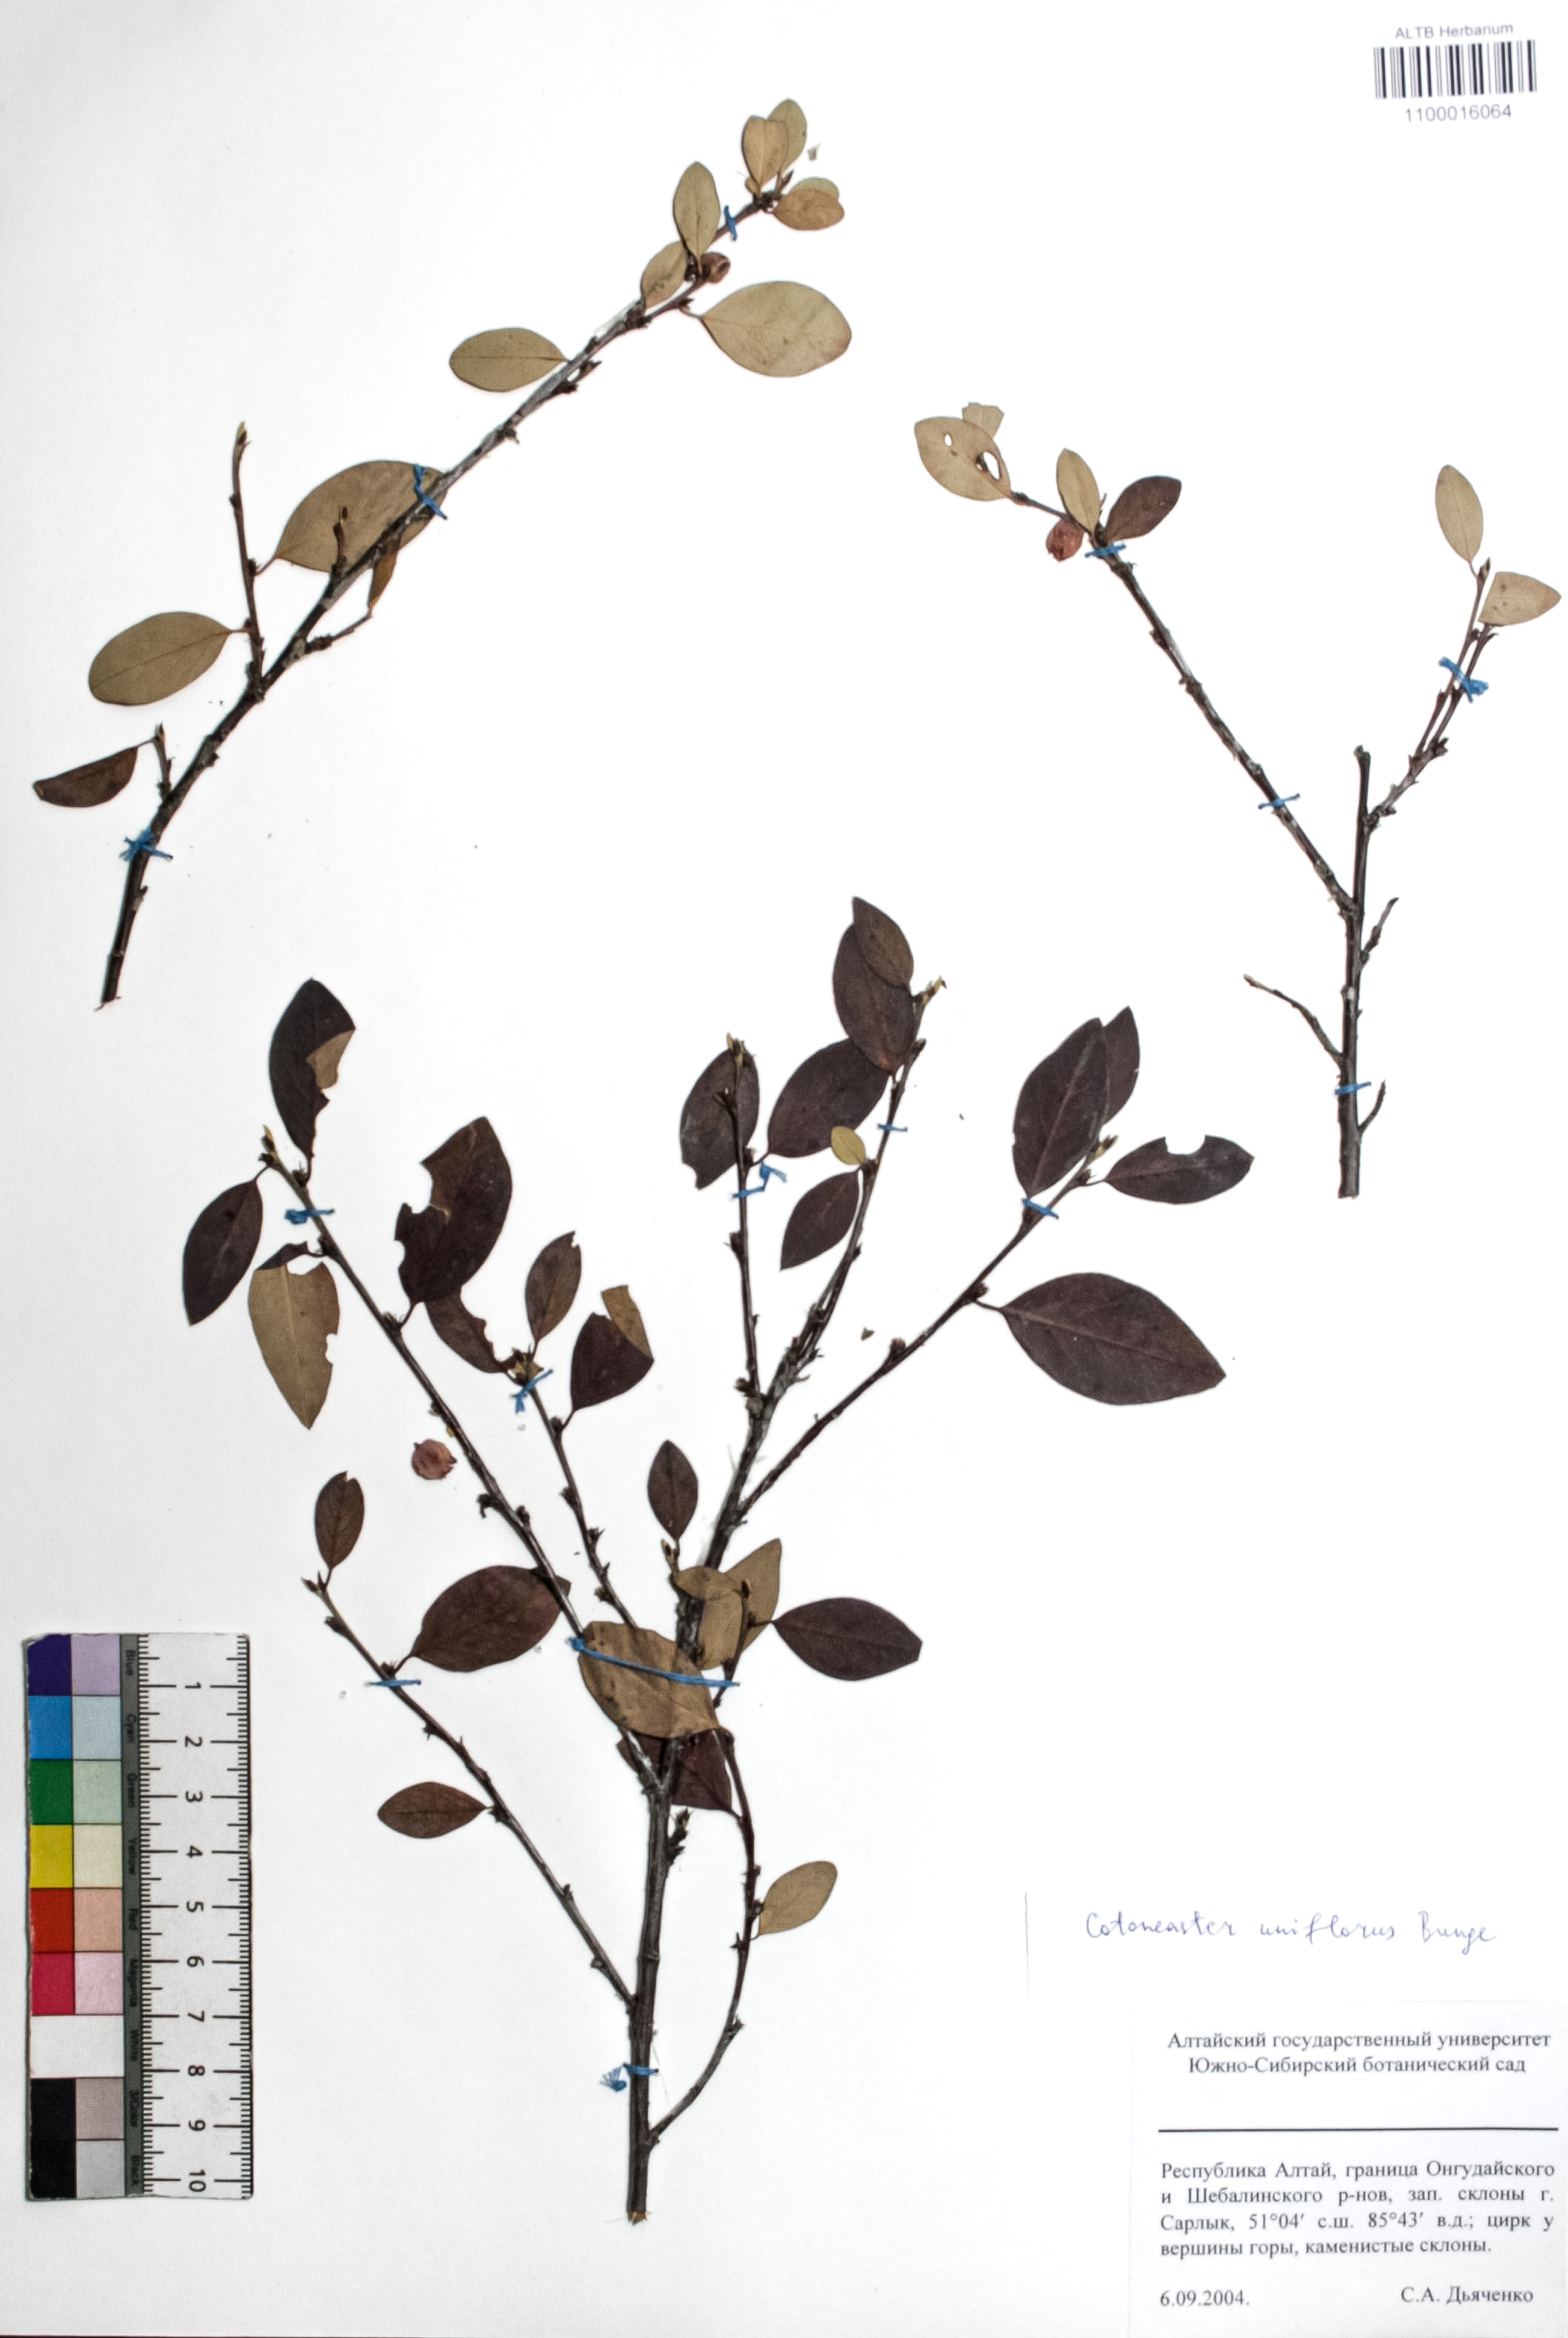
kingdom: Plantae
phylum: Tracheophyta
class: Magnoliopsida
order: Rosales
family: Rosaceae
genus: Cotoneaster
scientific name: Cotoneaster uniflorus
